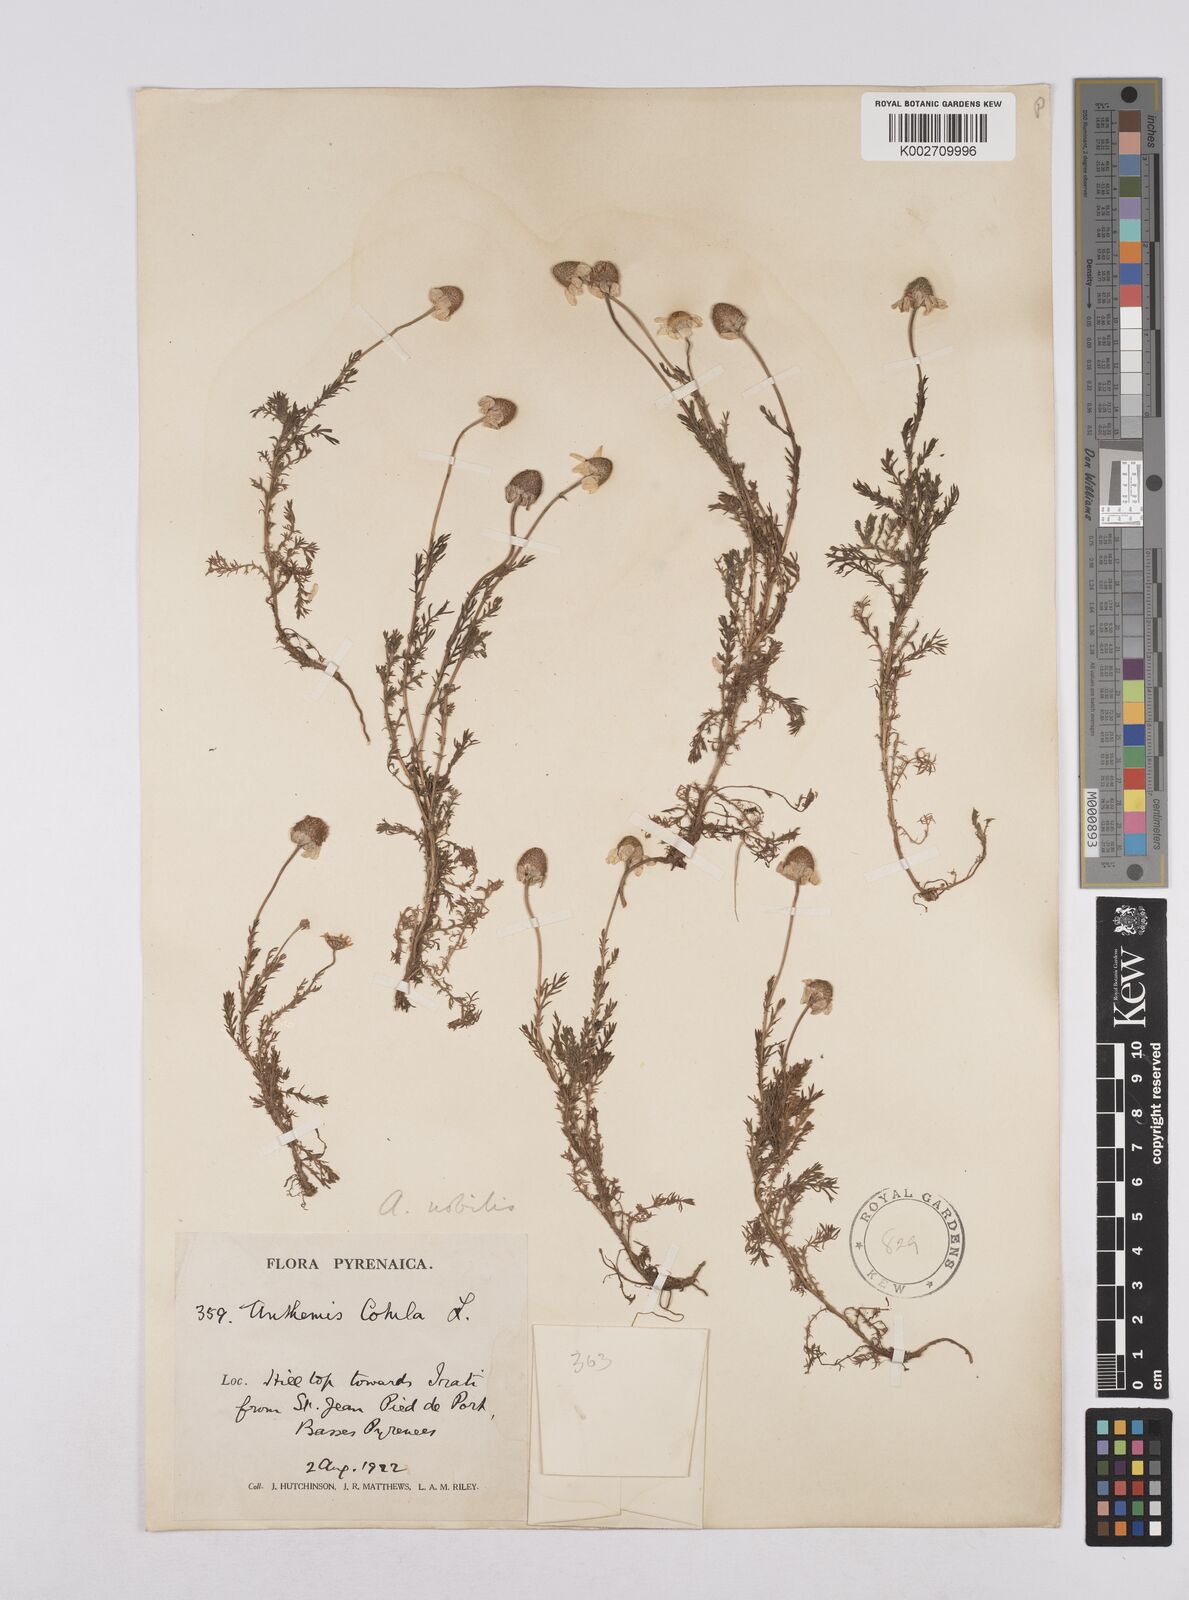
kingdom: Plantae
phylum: Tracheophyta
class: Magnoliopsida
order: Asterales
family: Asteraceae
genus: Chamaemelum
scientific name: Chamaemelum nobile
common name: Roman chamomile
